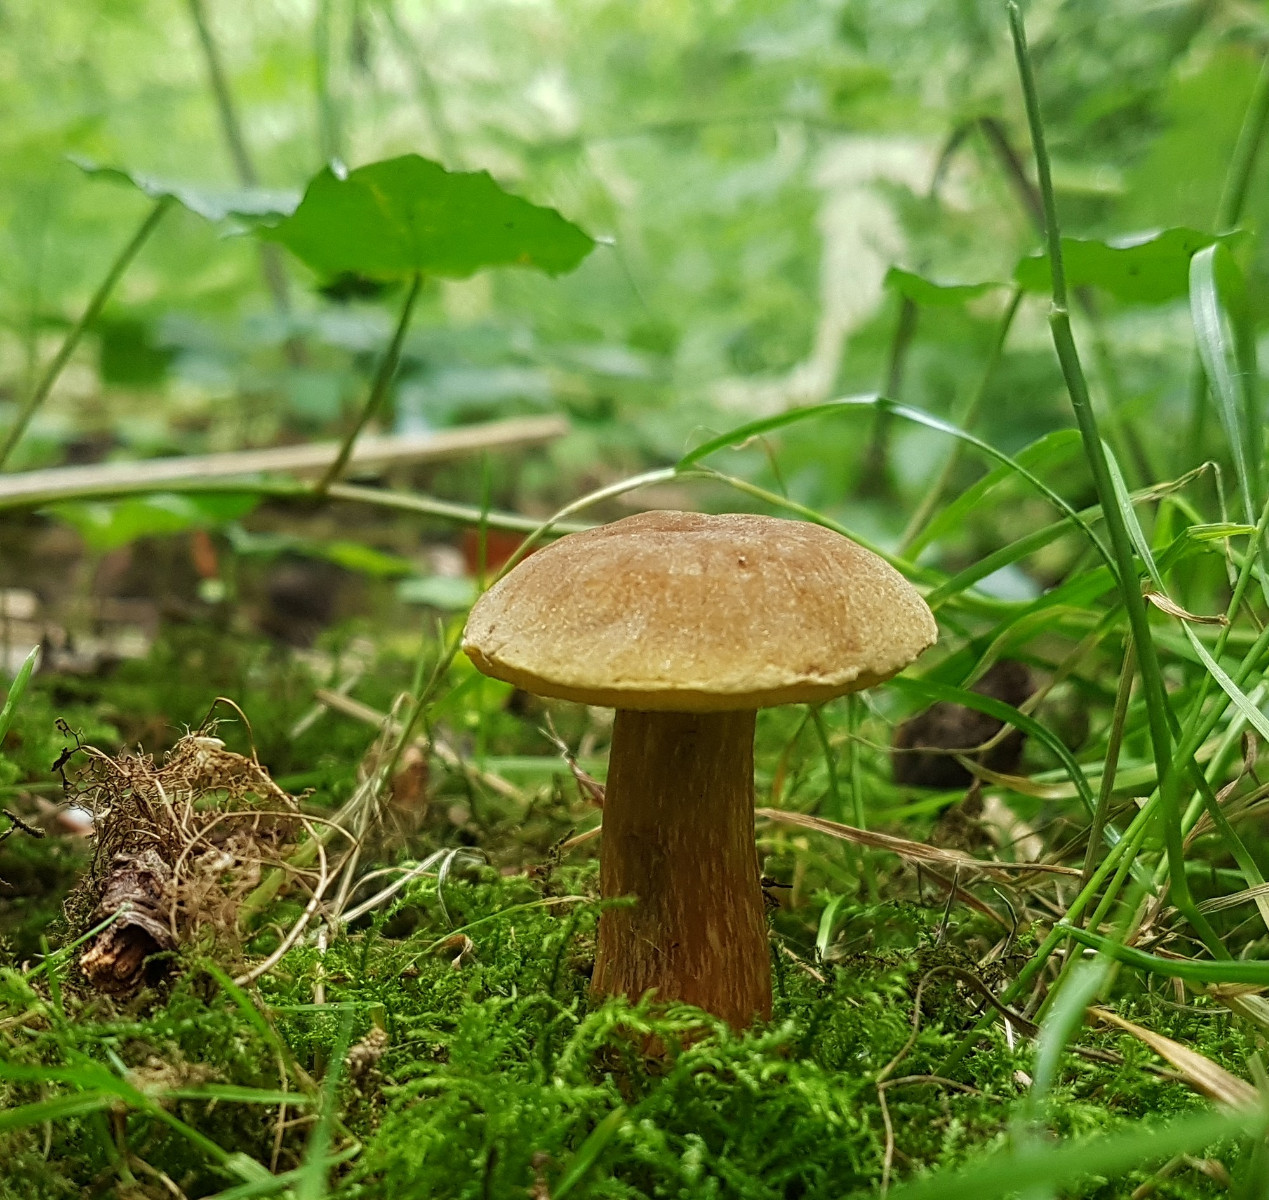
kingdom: Fungi
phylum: Basidiomycota
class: Agaricomycetes
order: Boletales
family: Boletaceae
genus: Hortiboletus
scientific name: Hortiboletus bubalinus
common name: aurora-rørhat
